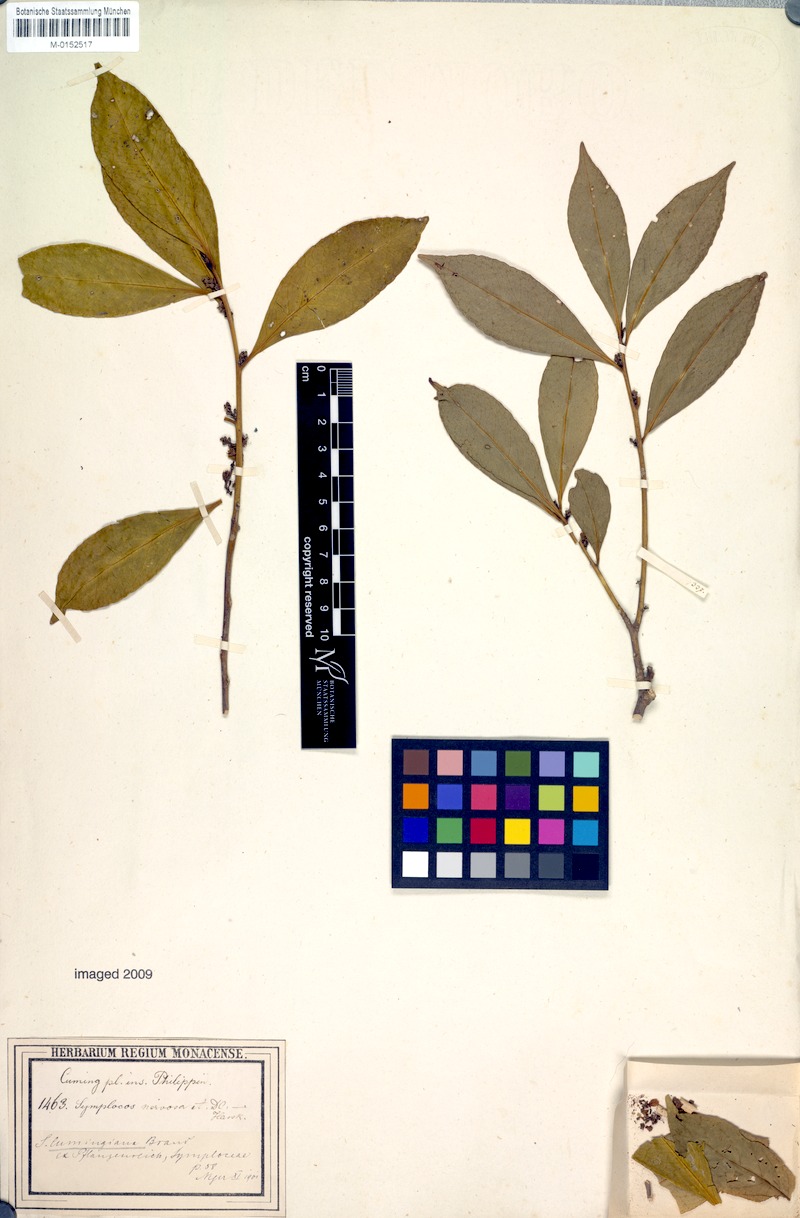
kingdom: Plantae
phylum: Tracheophyta
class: Magnoliopsida
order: Ericales
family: Symplocaceae
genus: Symplocos
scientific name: Symplocos ophirensis
